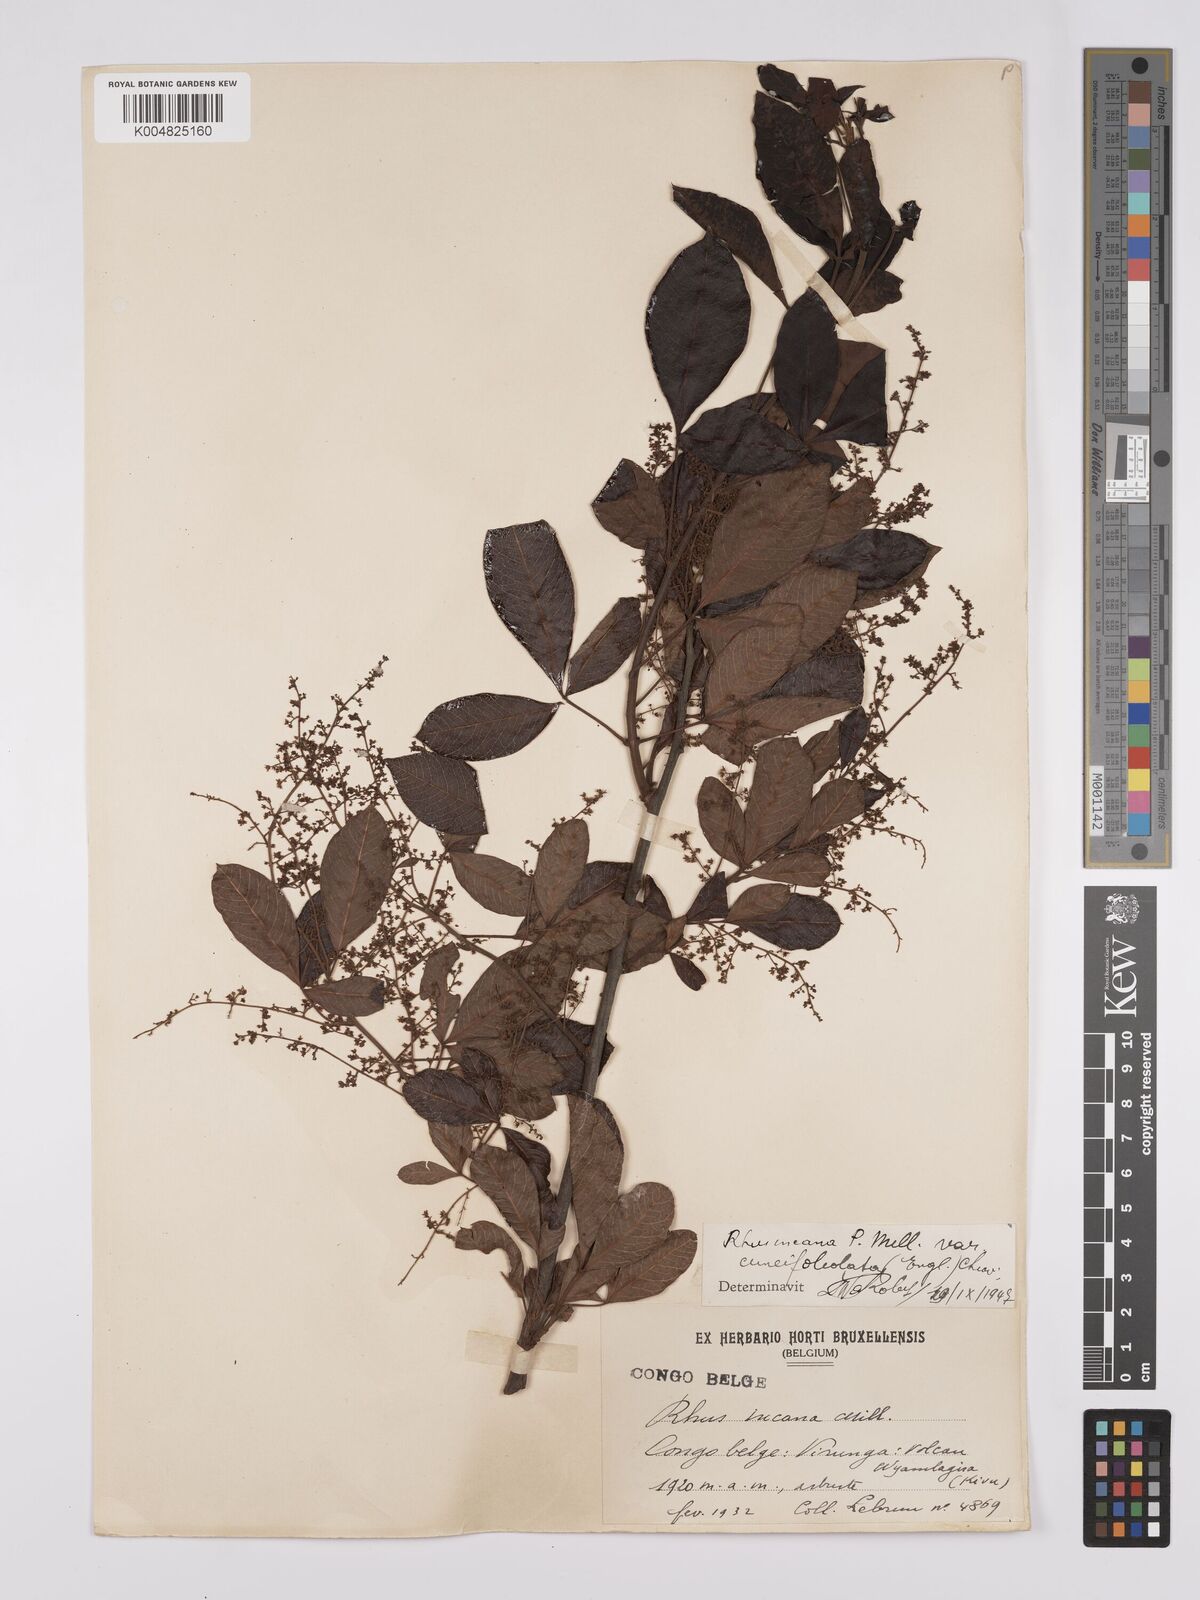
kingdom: Plantae
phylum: Tracheophyta
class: Magnoliopsida
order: Sapindales
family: Anacardiaceae
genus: Searsia
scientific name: Searsia longipes
